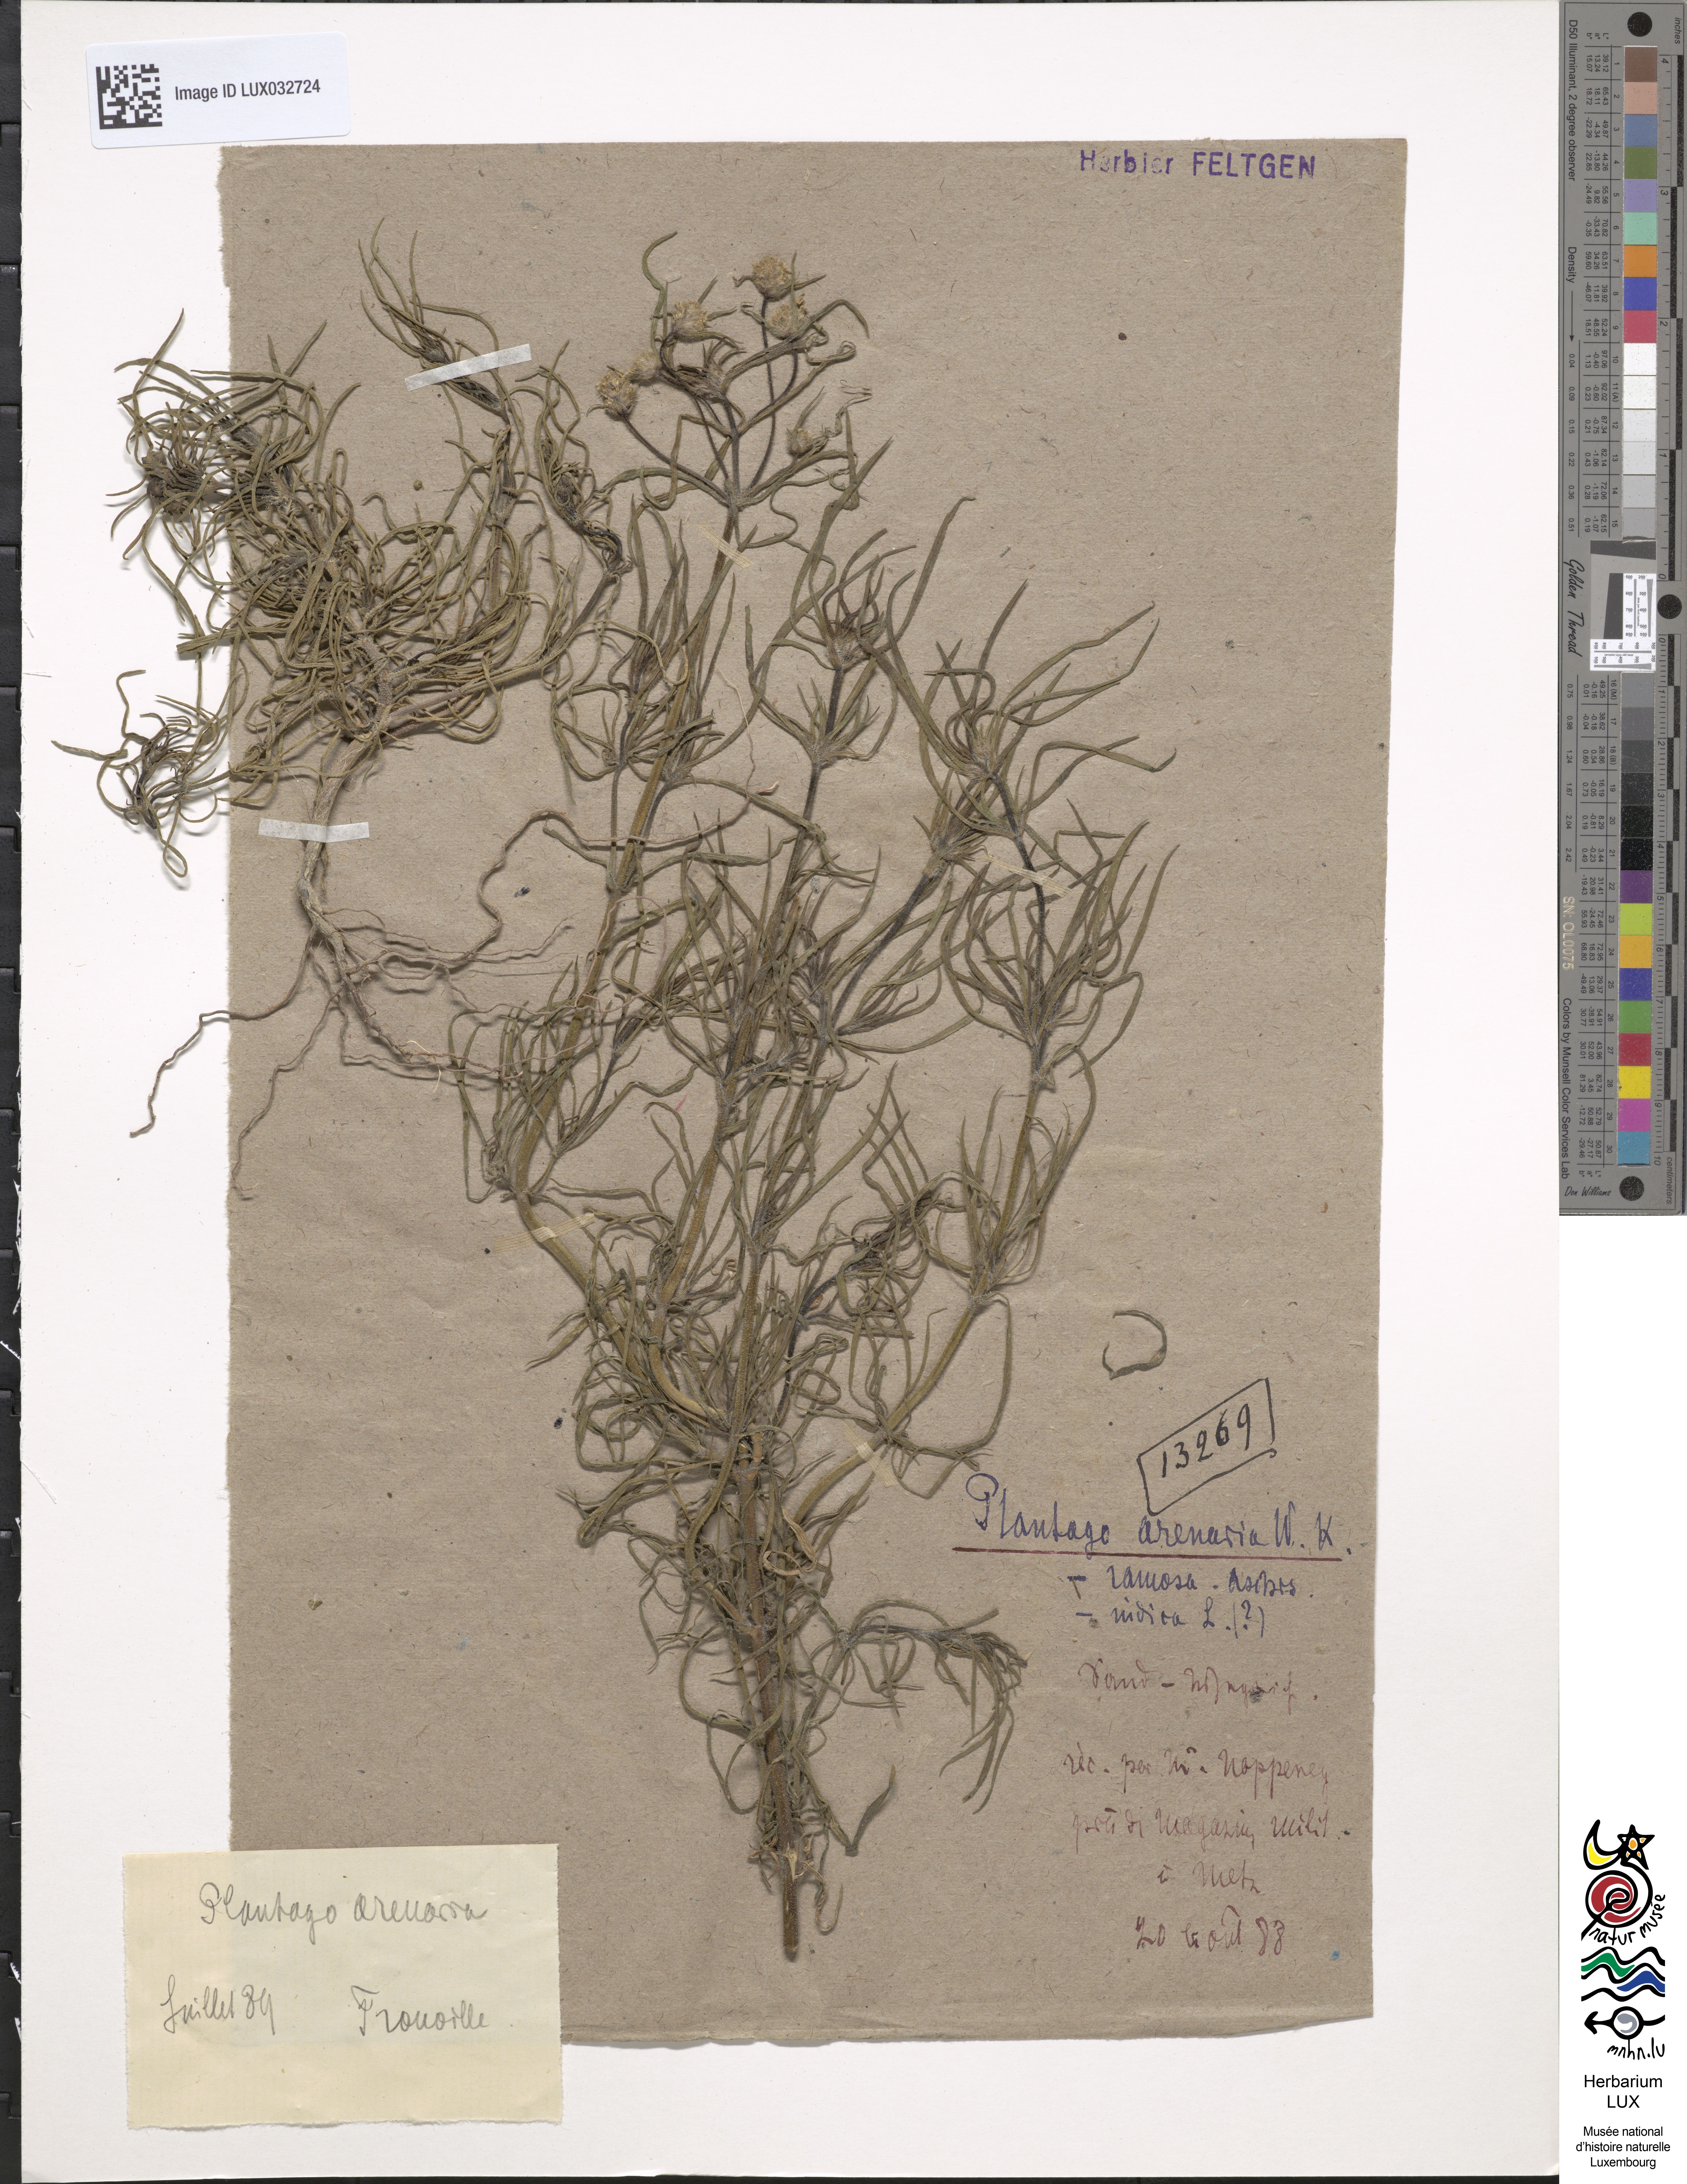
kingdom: Plantae
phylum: Tracheophyta
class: Magnoliopsida
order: Lamiales
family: Plantaginaceae
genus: Plantago
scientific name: Plantago arenaria
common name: Branched plantain
